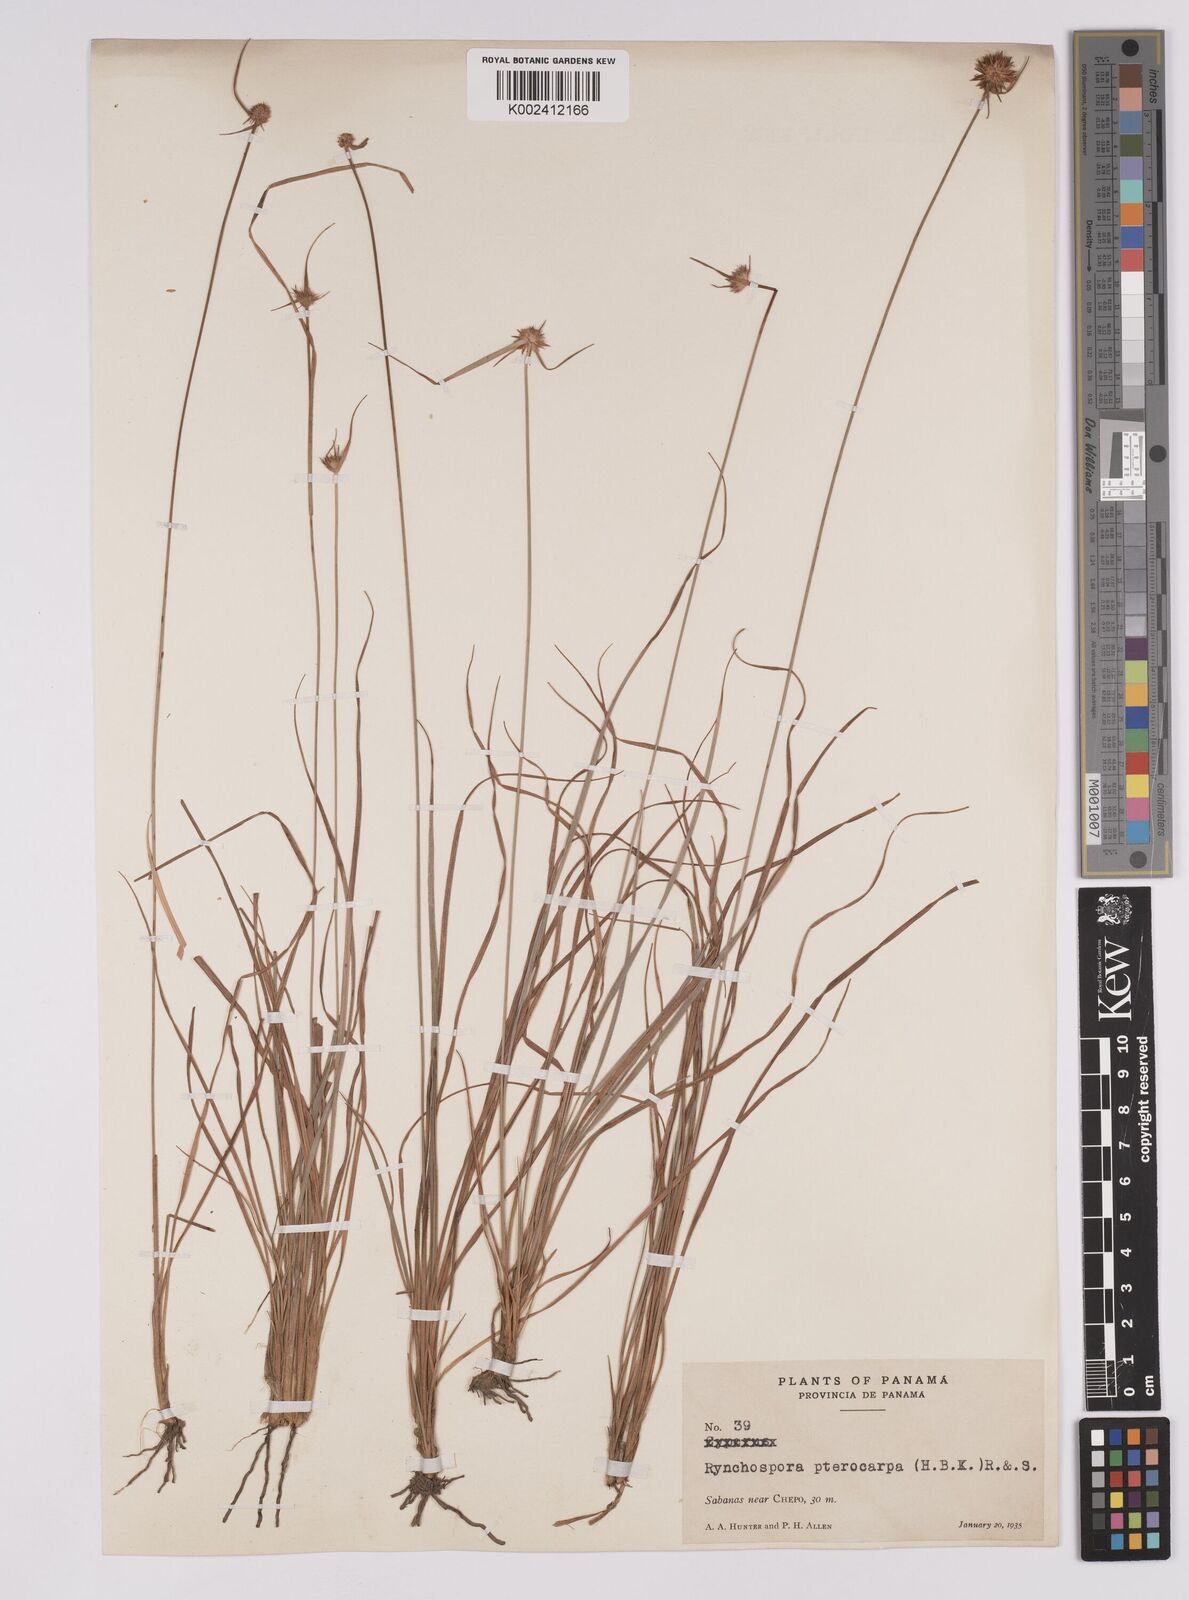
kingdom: Plantae
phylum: Tracheophyta
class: Liliopsida
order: Poales
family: Cyperaceae
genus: Rhynchospora
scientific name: Rhynchospora barbata
